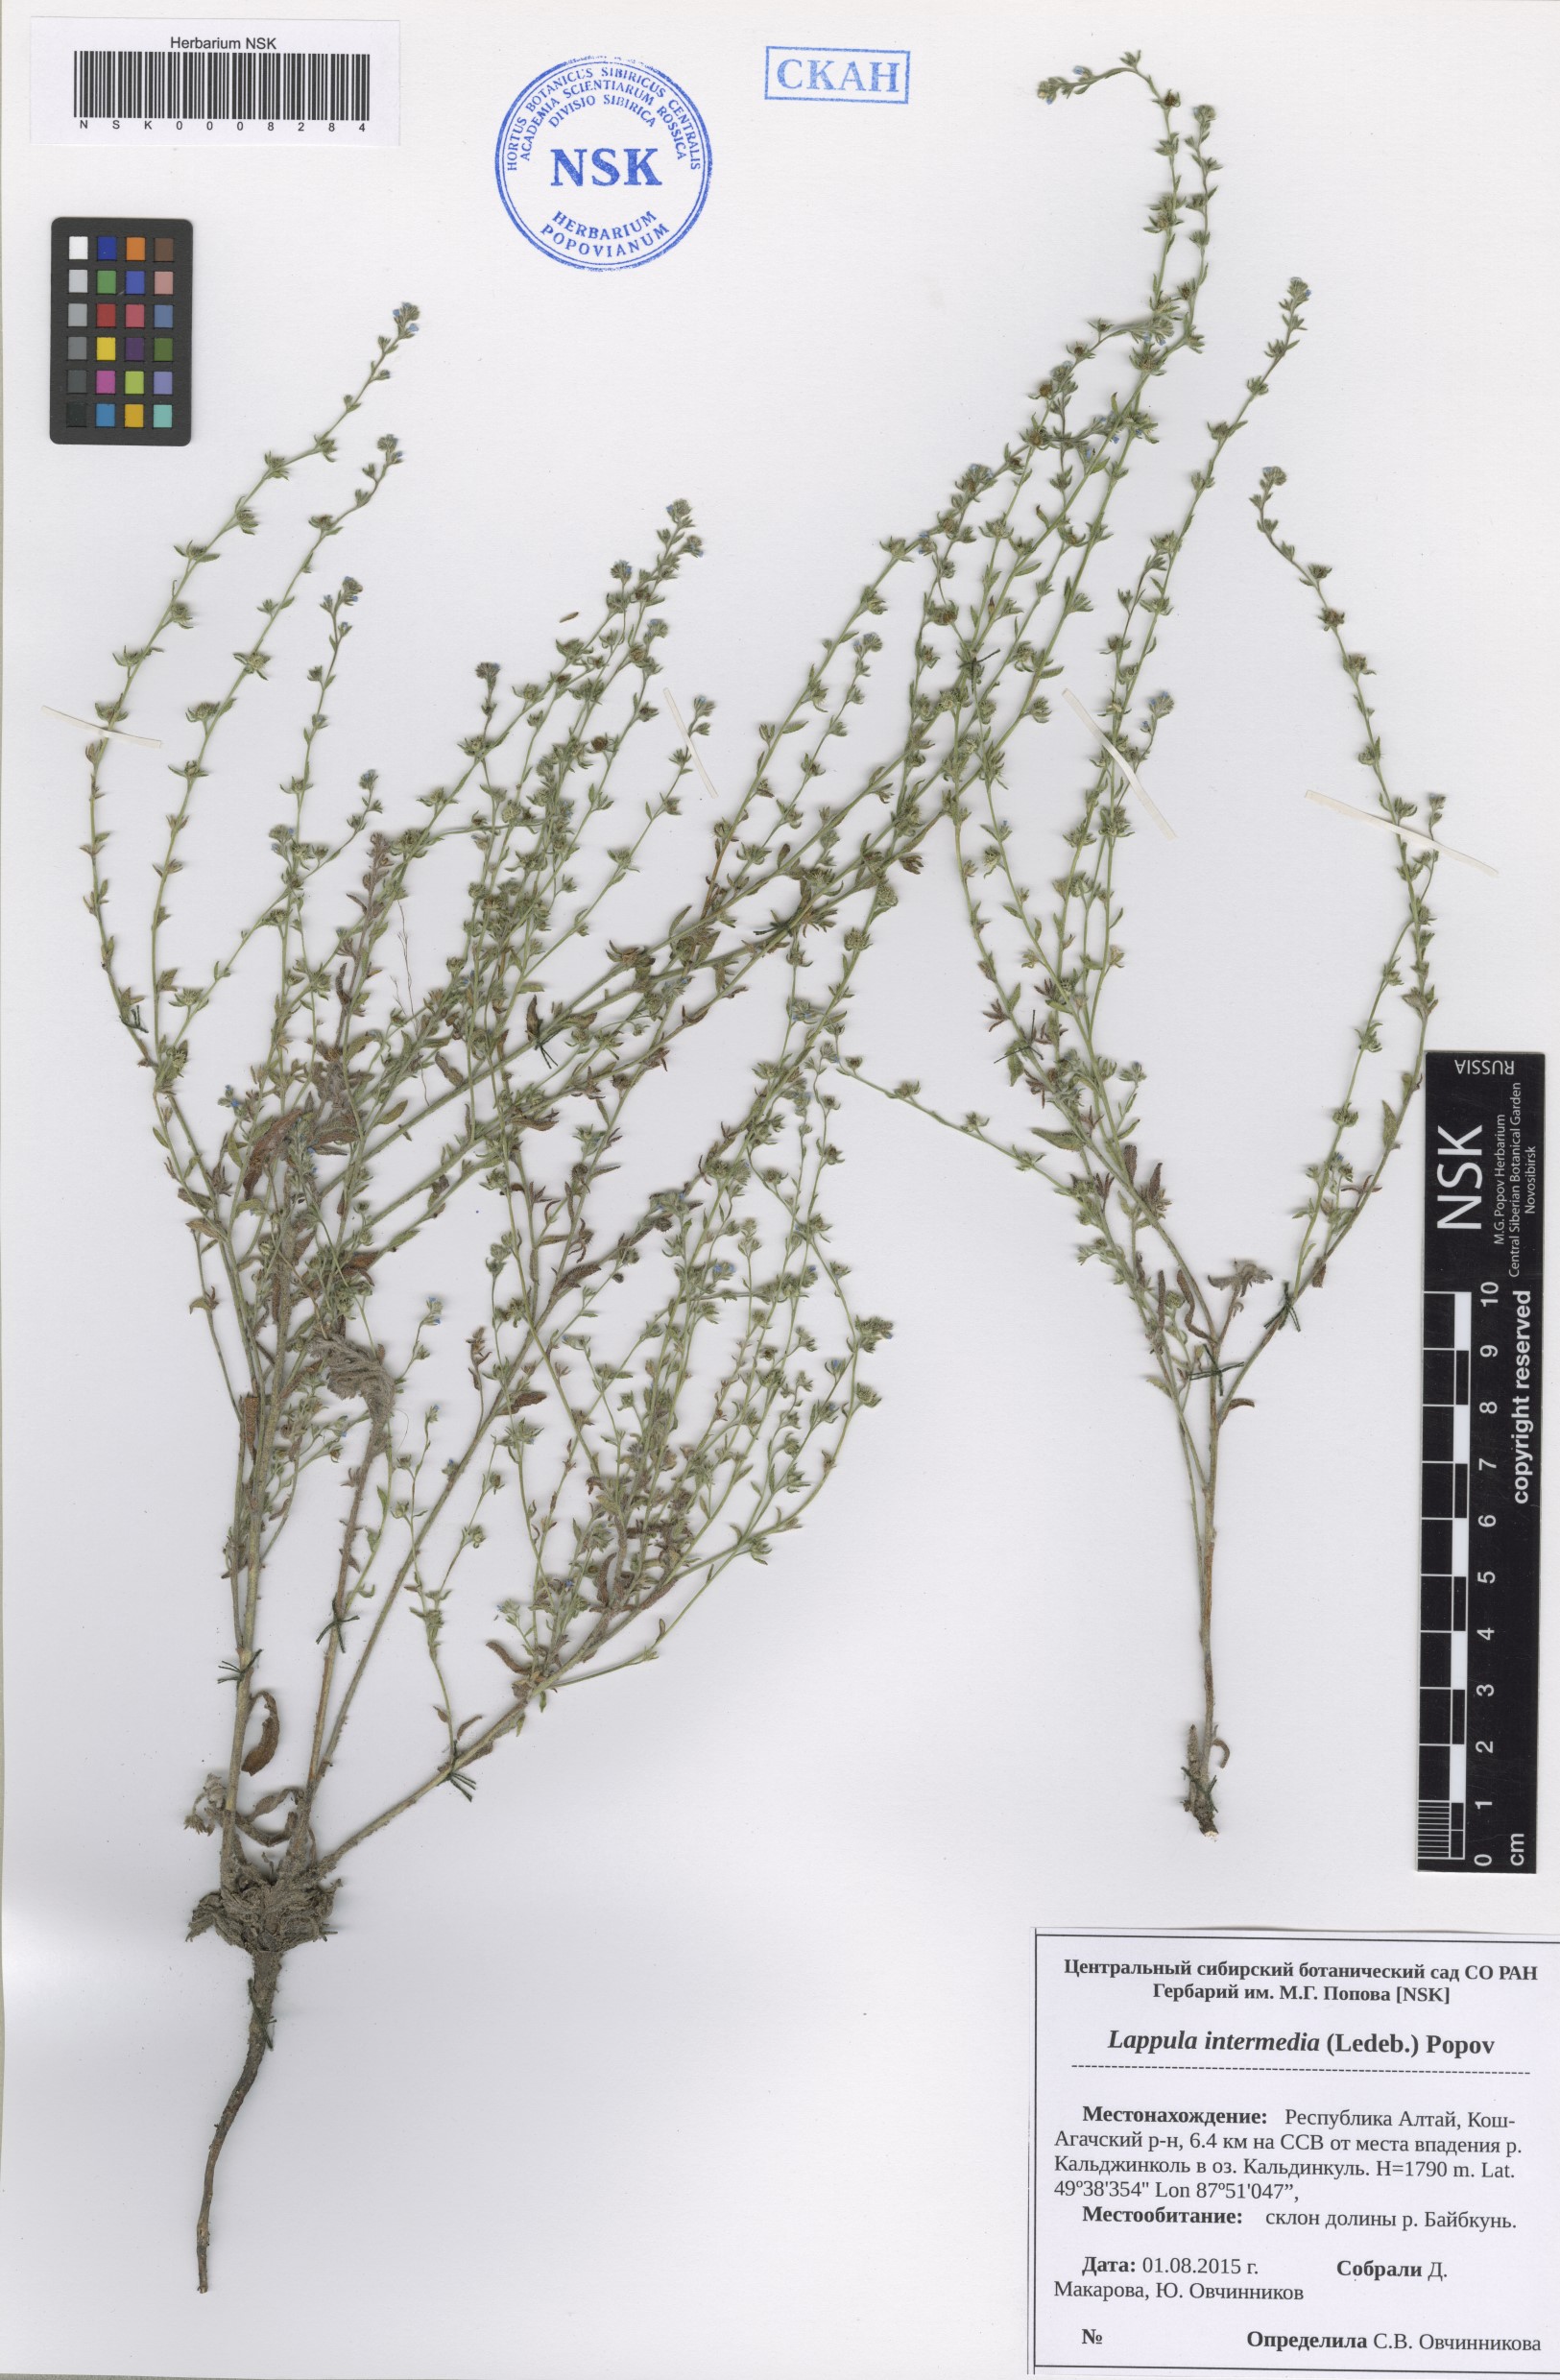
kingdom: Plantae
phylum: Tracheophyta
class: Magnoliopsida
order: Boraginales
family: Boraginaceae
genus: Lappula
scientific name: Lappula intermedia
